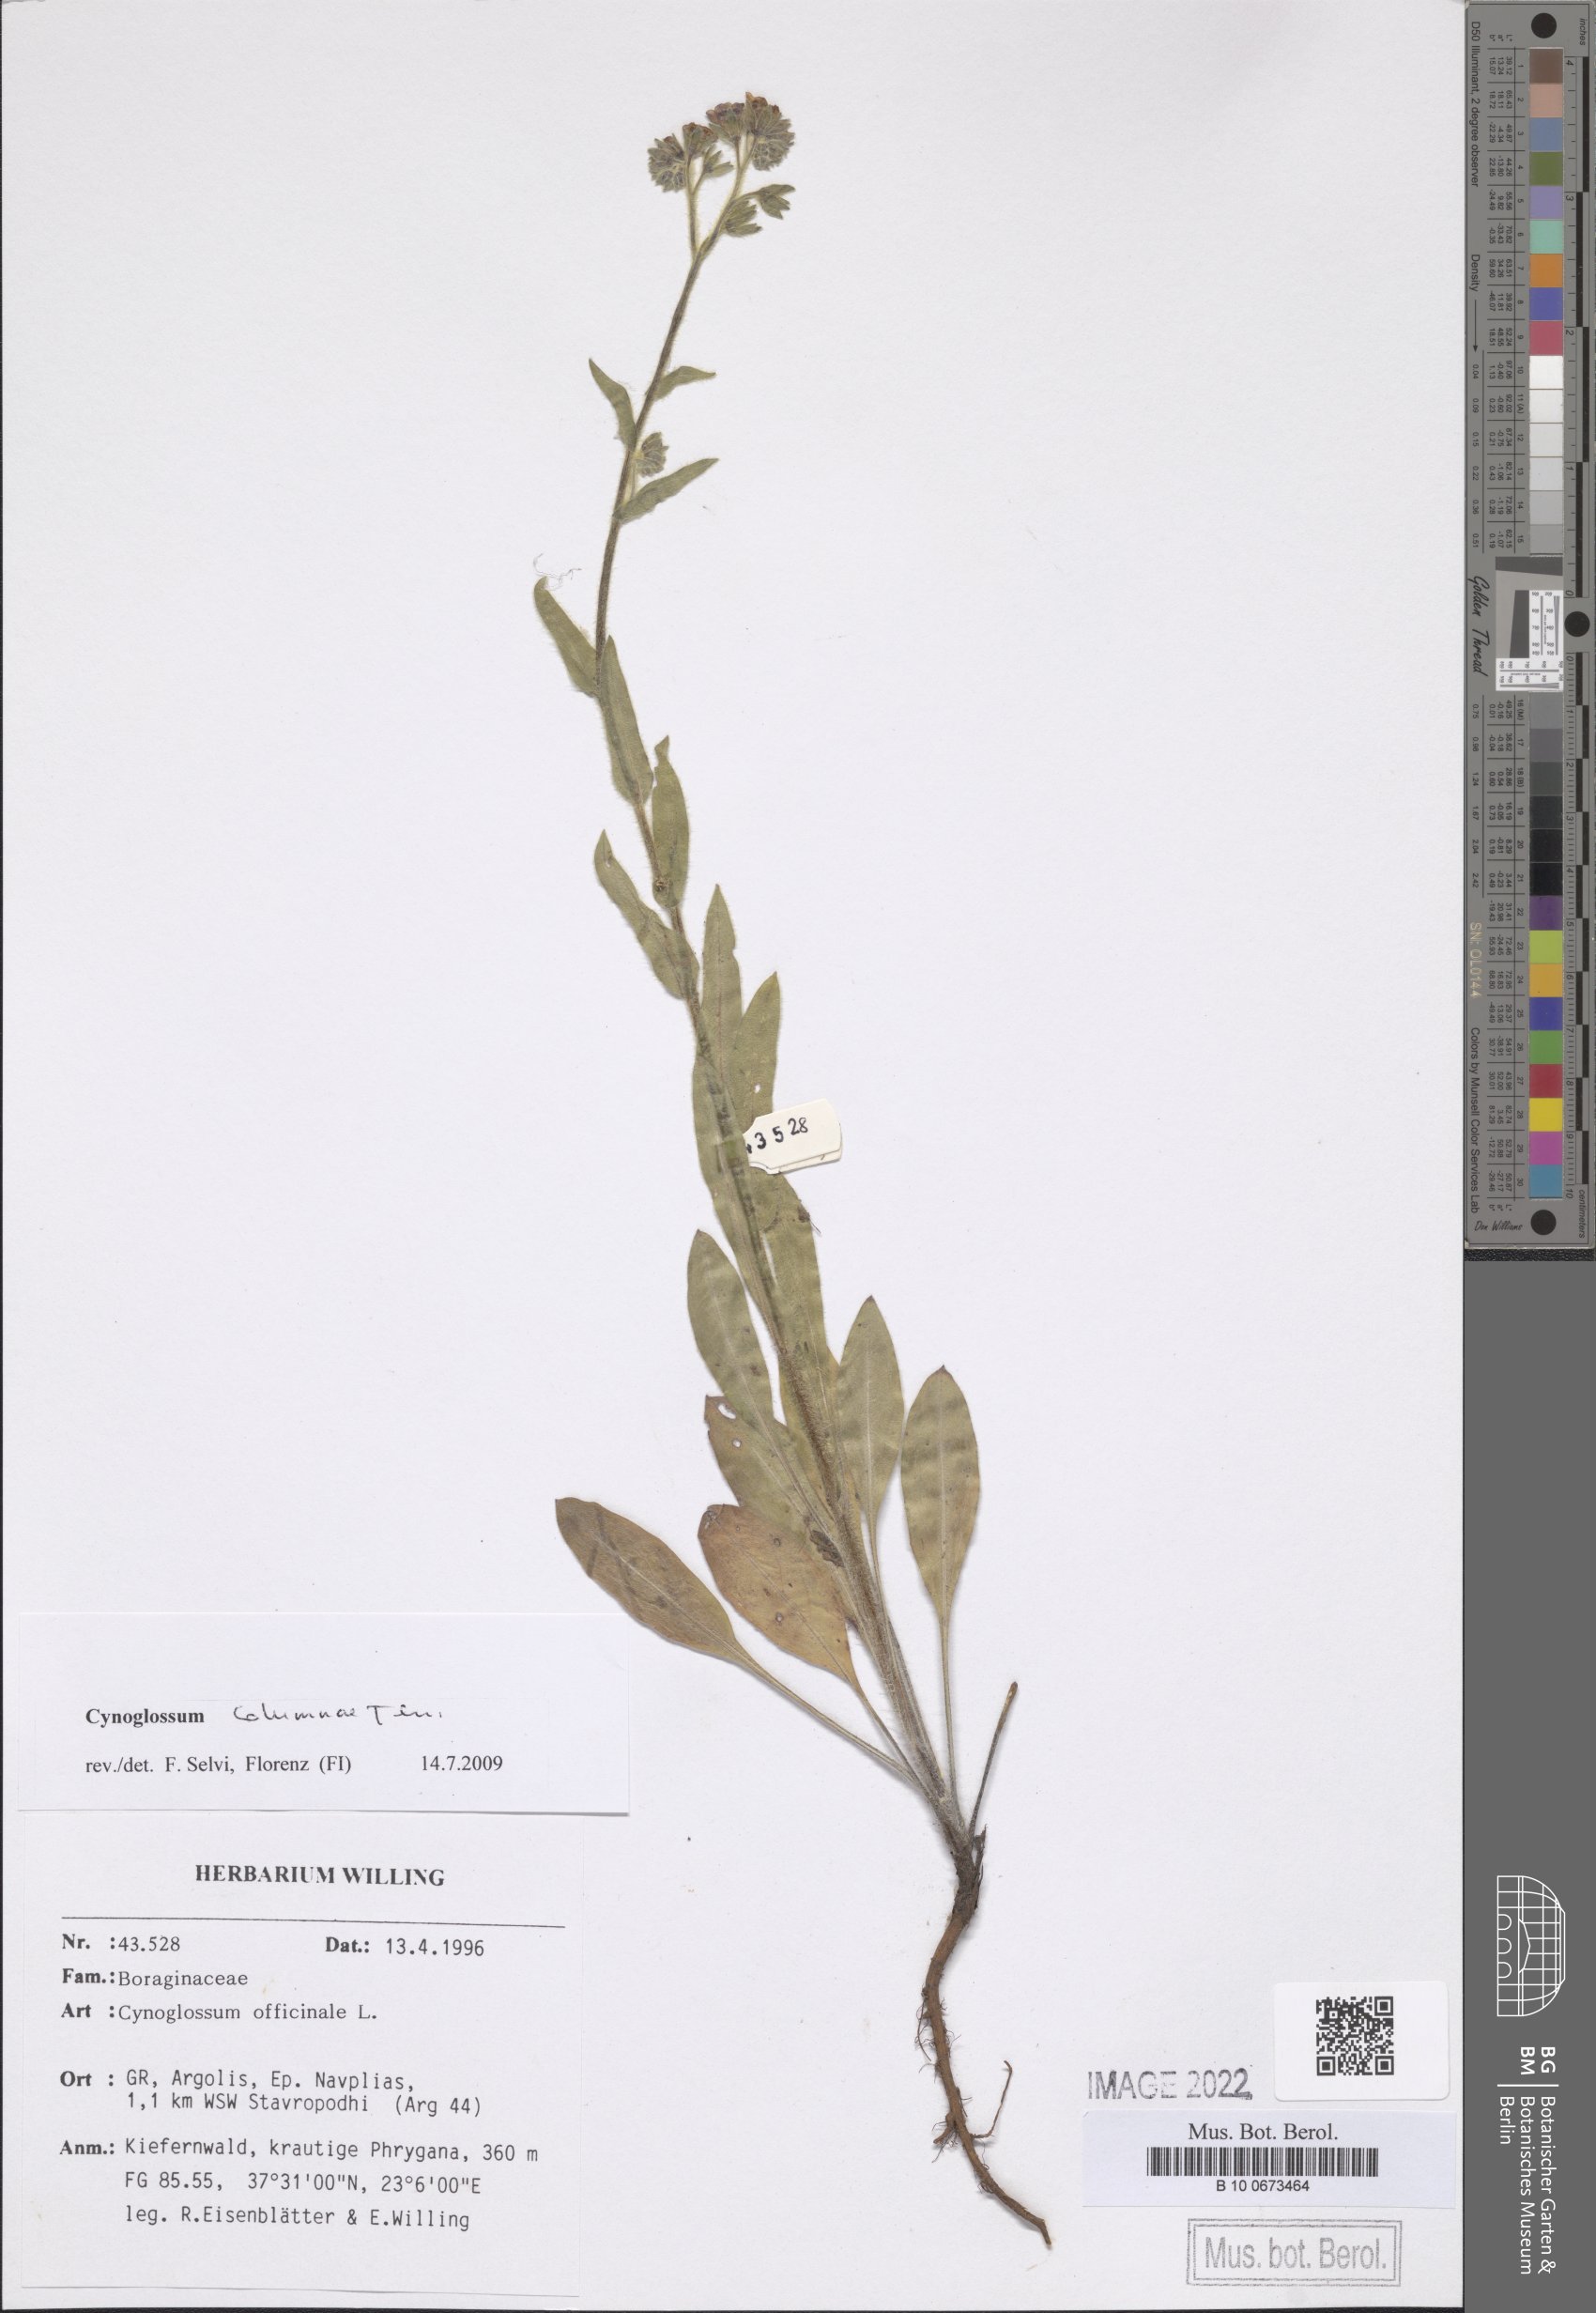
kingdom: Plantae
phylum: Tracheophyta
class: Magnoliopsida
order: Boraginales
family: Boraginaceae
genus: Rindera
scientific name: Rindera columnae
